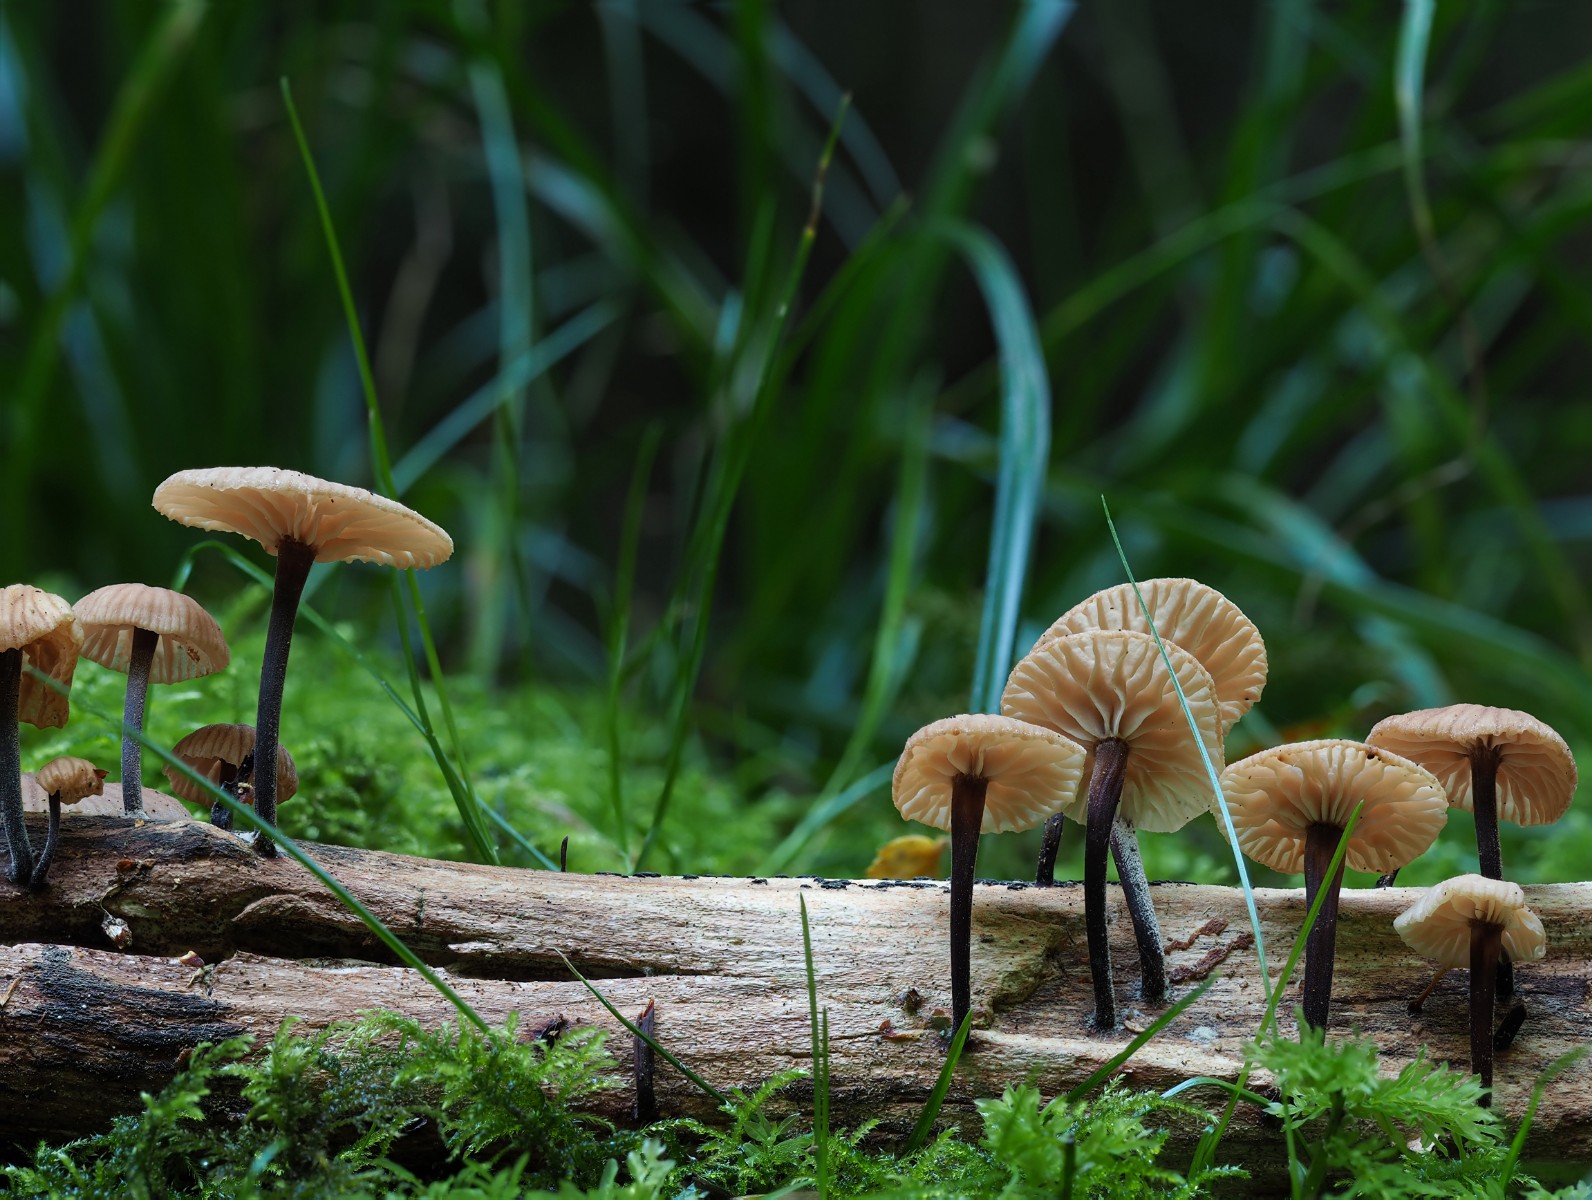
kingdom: Fungi
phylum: Basidiomycota
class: Agaricomycetes
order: Agaricales
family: Omphalotaceae
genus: Gymnopus
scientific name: Gymnopus foetidus
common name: stinkende fladhat
